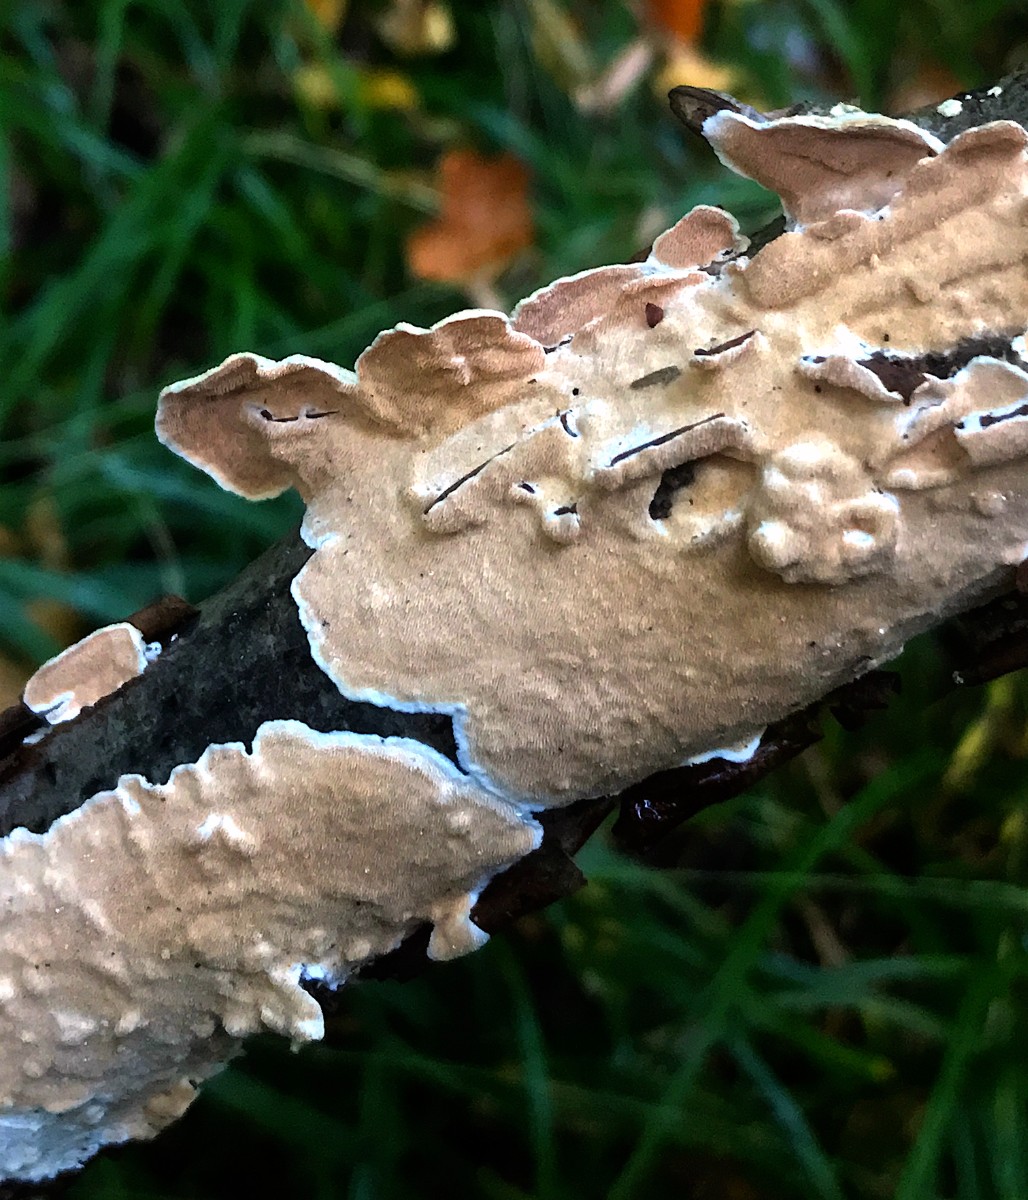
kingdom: Fungi
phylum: Basidiomycota
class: Agaricomycetes
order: Polyporales
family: Steccherinaceae
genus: Steccherinum
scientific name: Steccherinum ochraceum
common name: almindelig skønpig
